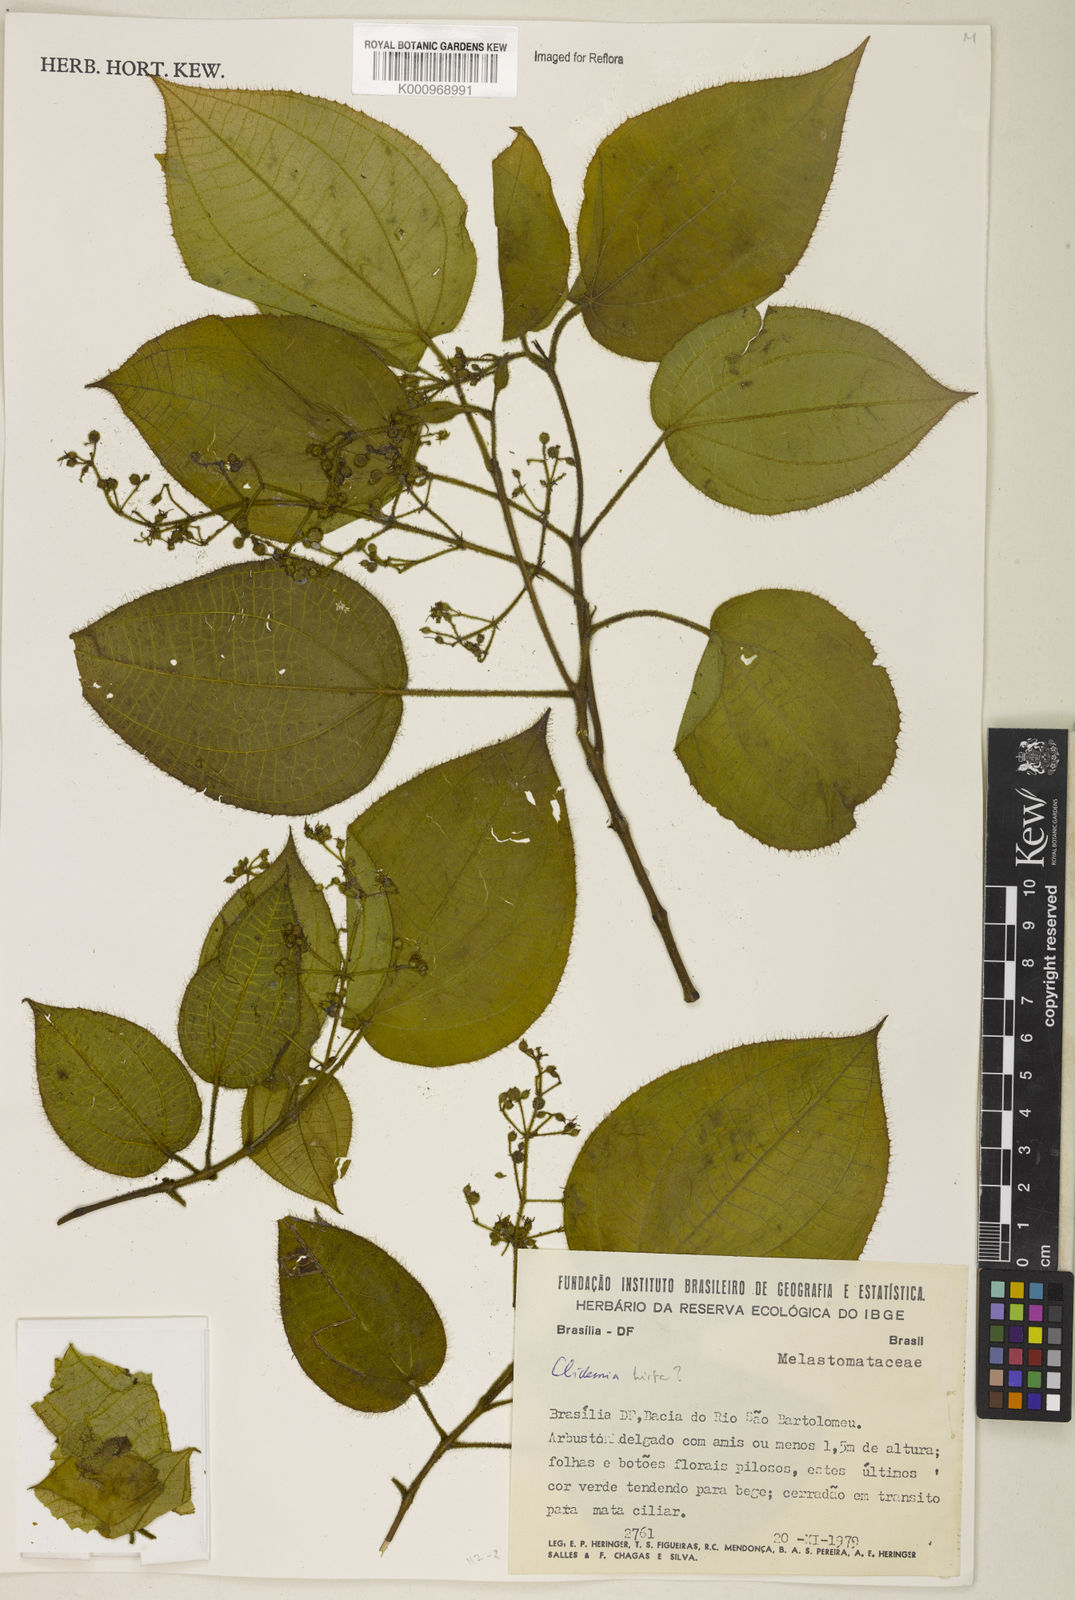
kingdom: Plantae
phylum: Tracheophyta
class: Magnoliopsida
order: Myrtales
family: Melastomataceae
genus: Miconia
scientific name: Miconia crenata
